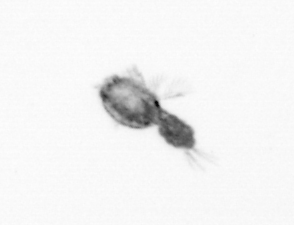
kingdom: Animalia
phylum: Arthropoda
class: Copepoda
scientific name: Copepoda
